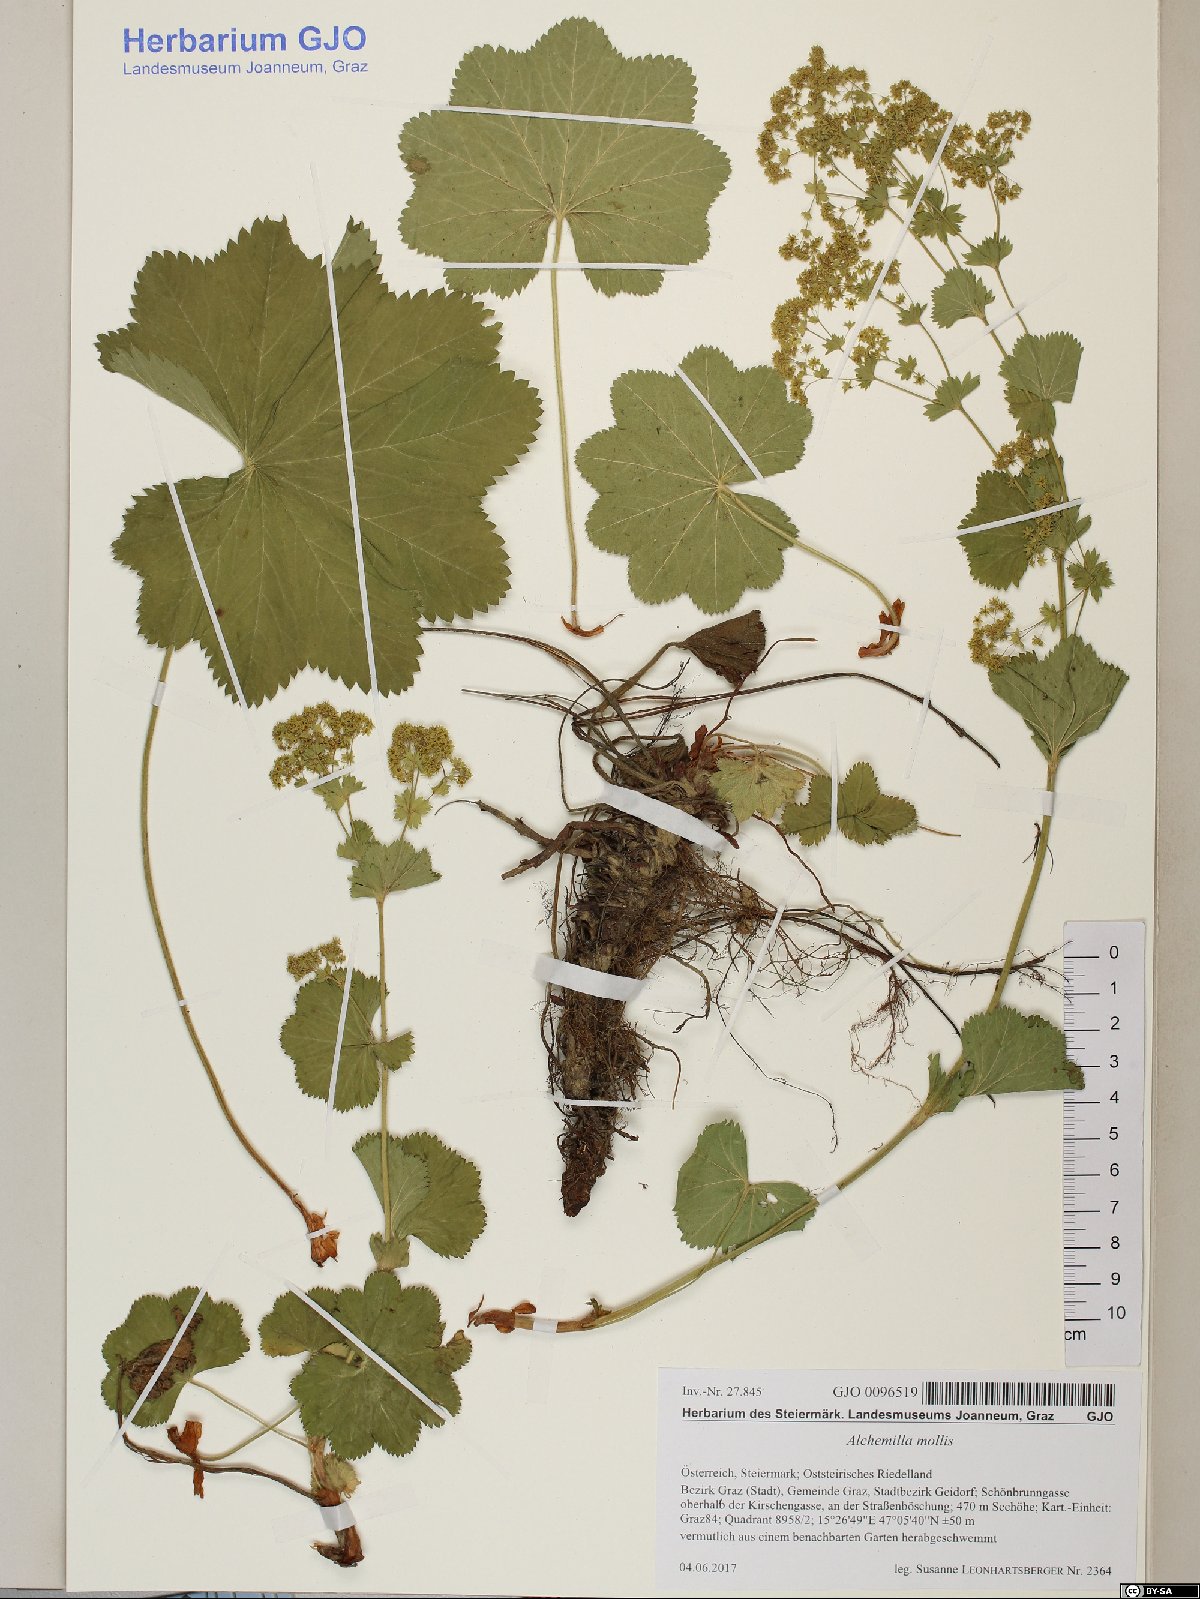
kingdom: Plantae
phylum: Tracheophyta
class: Magnoliopsida
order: Rosales
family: Rosaceae
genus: Alchemilla
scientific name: Alchemilla mollis
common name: Lady's-mantle
